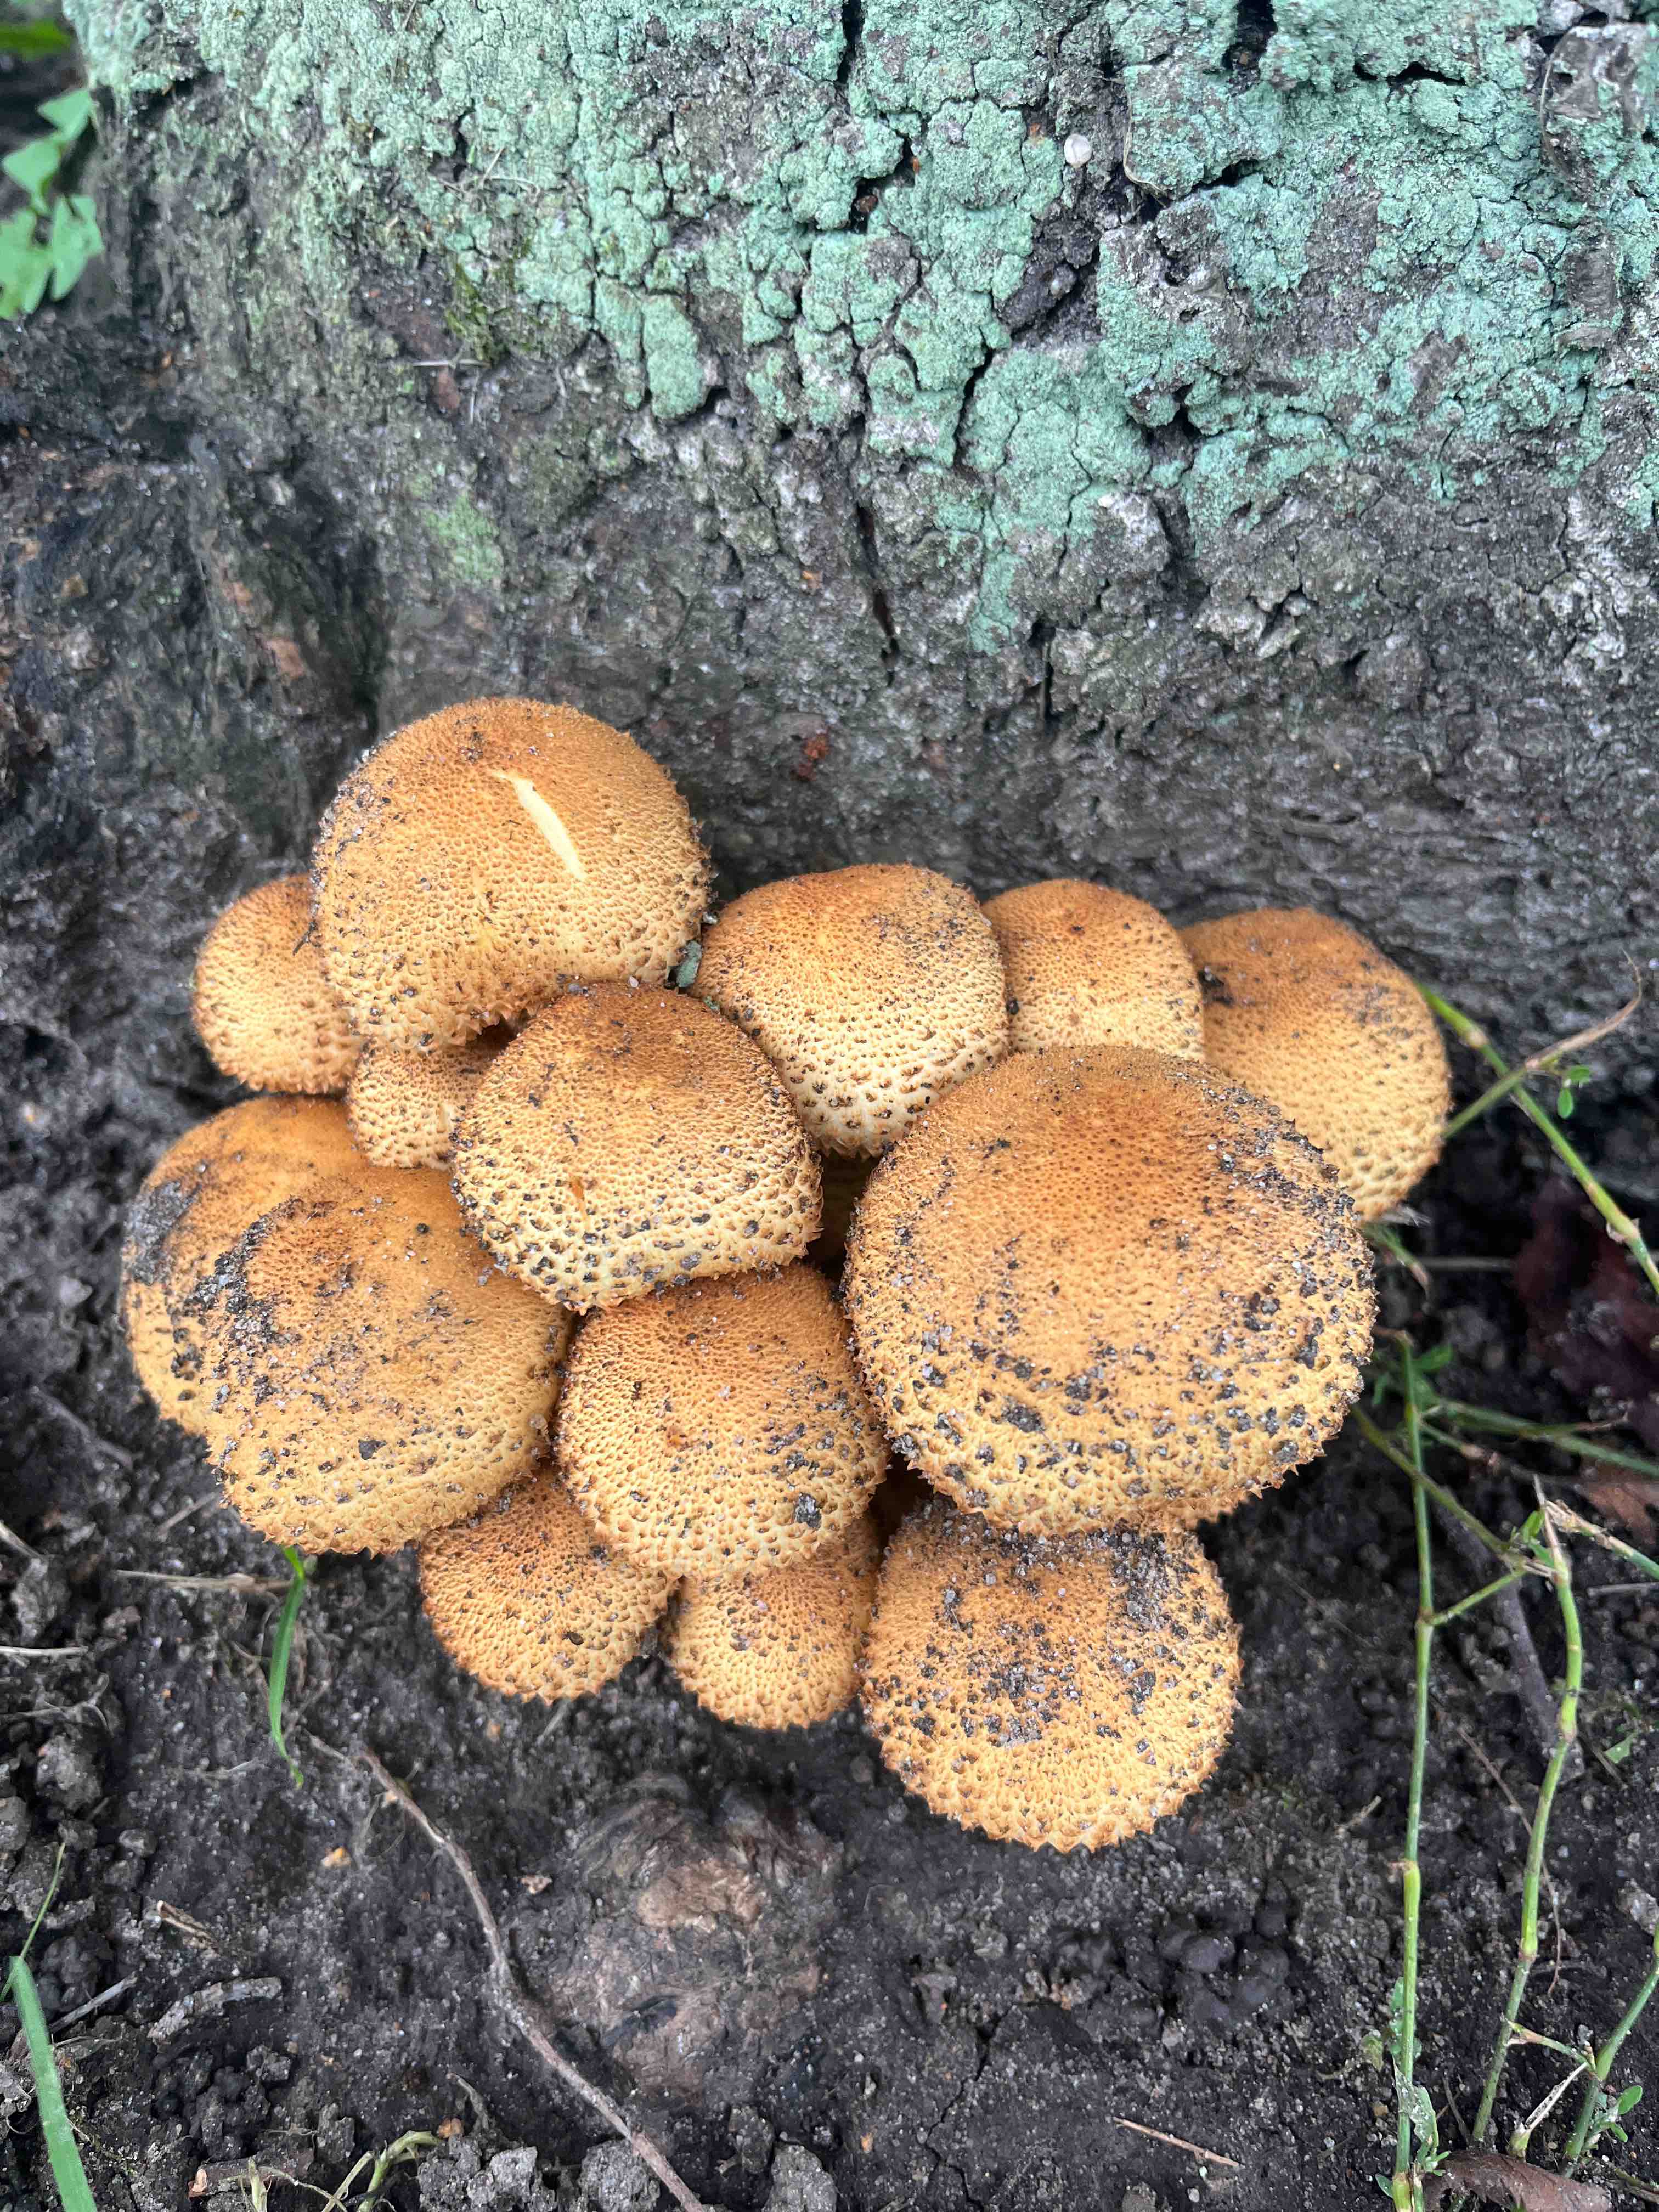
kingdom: Fungi
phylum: Basidiomycota
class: Agaricomycetes
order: Agaricales
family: Strophariaceae
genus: Pholiota
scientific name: Pholiota squarrosa
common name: krumskællet skælhat
